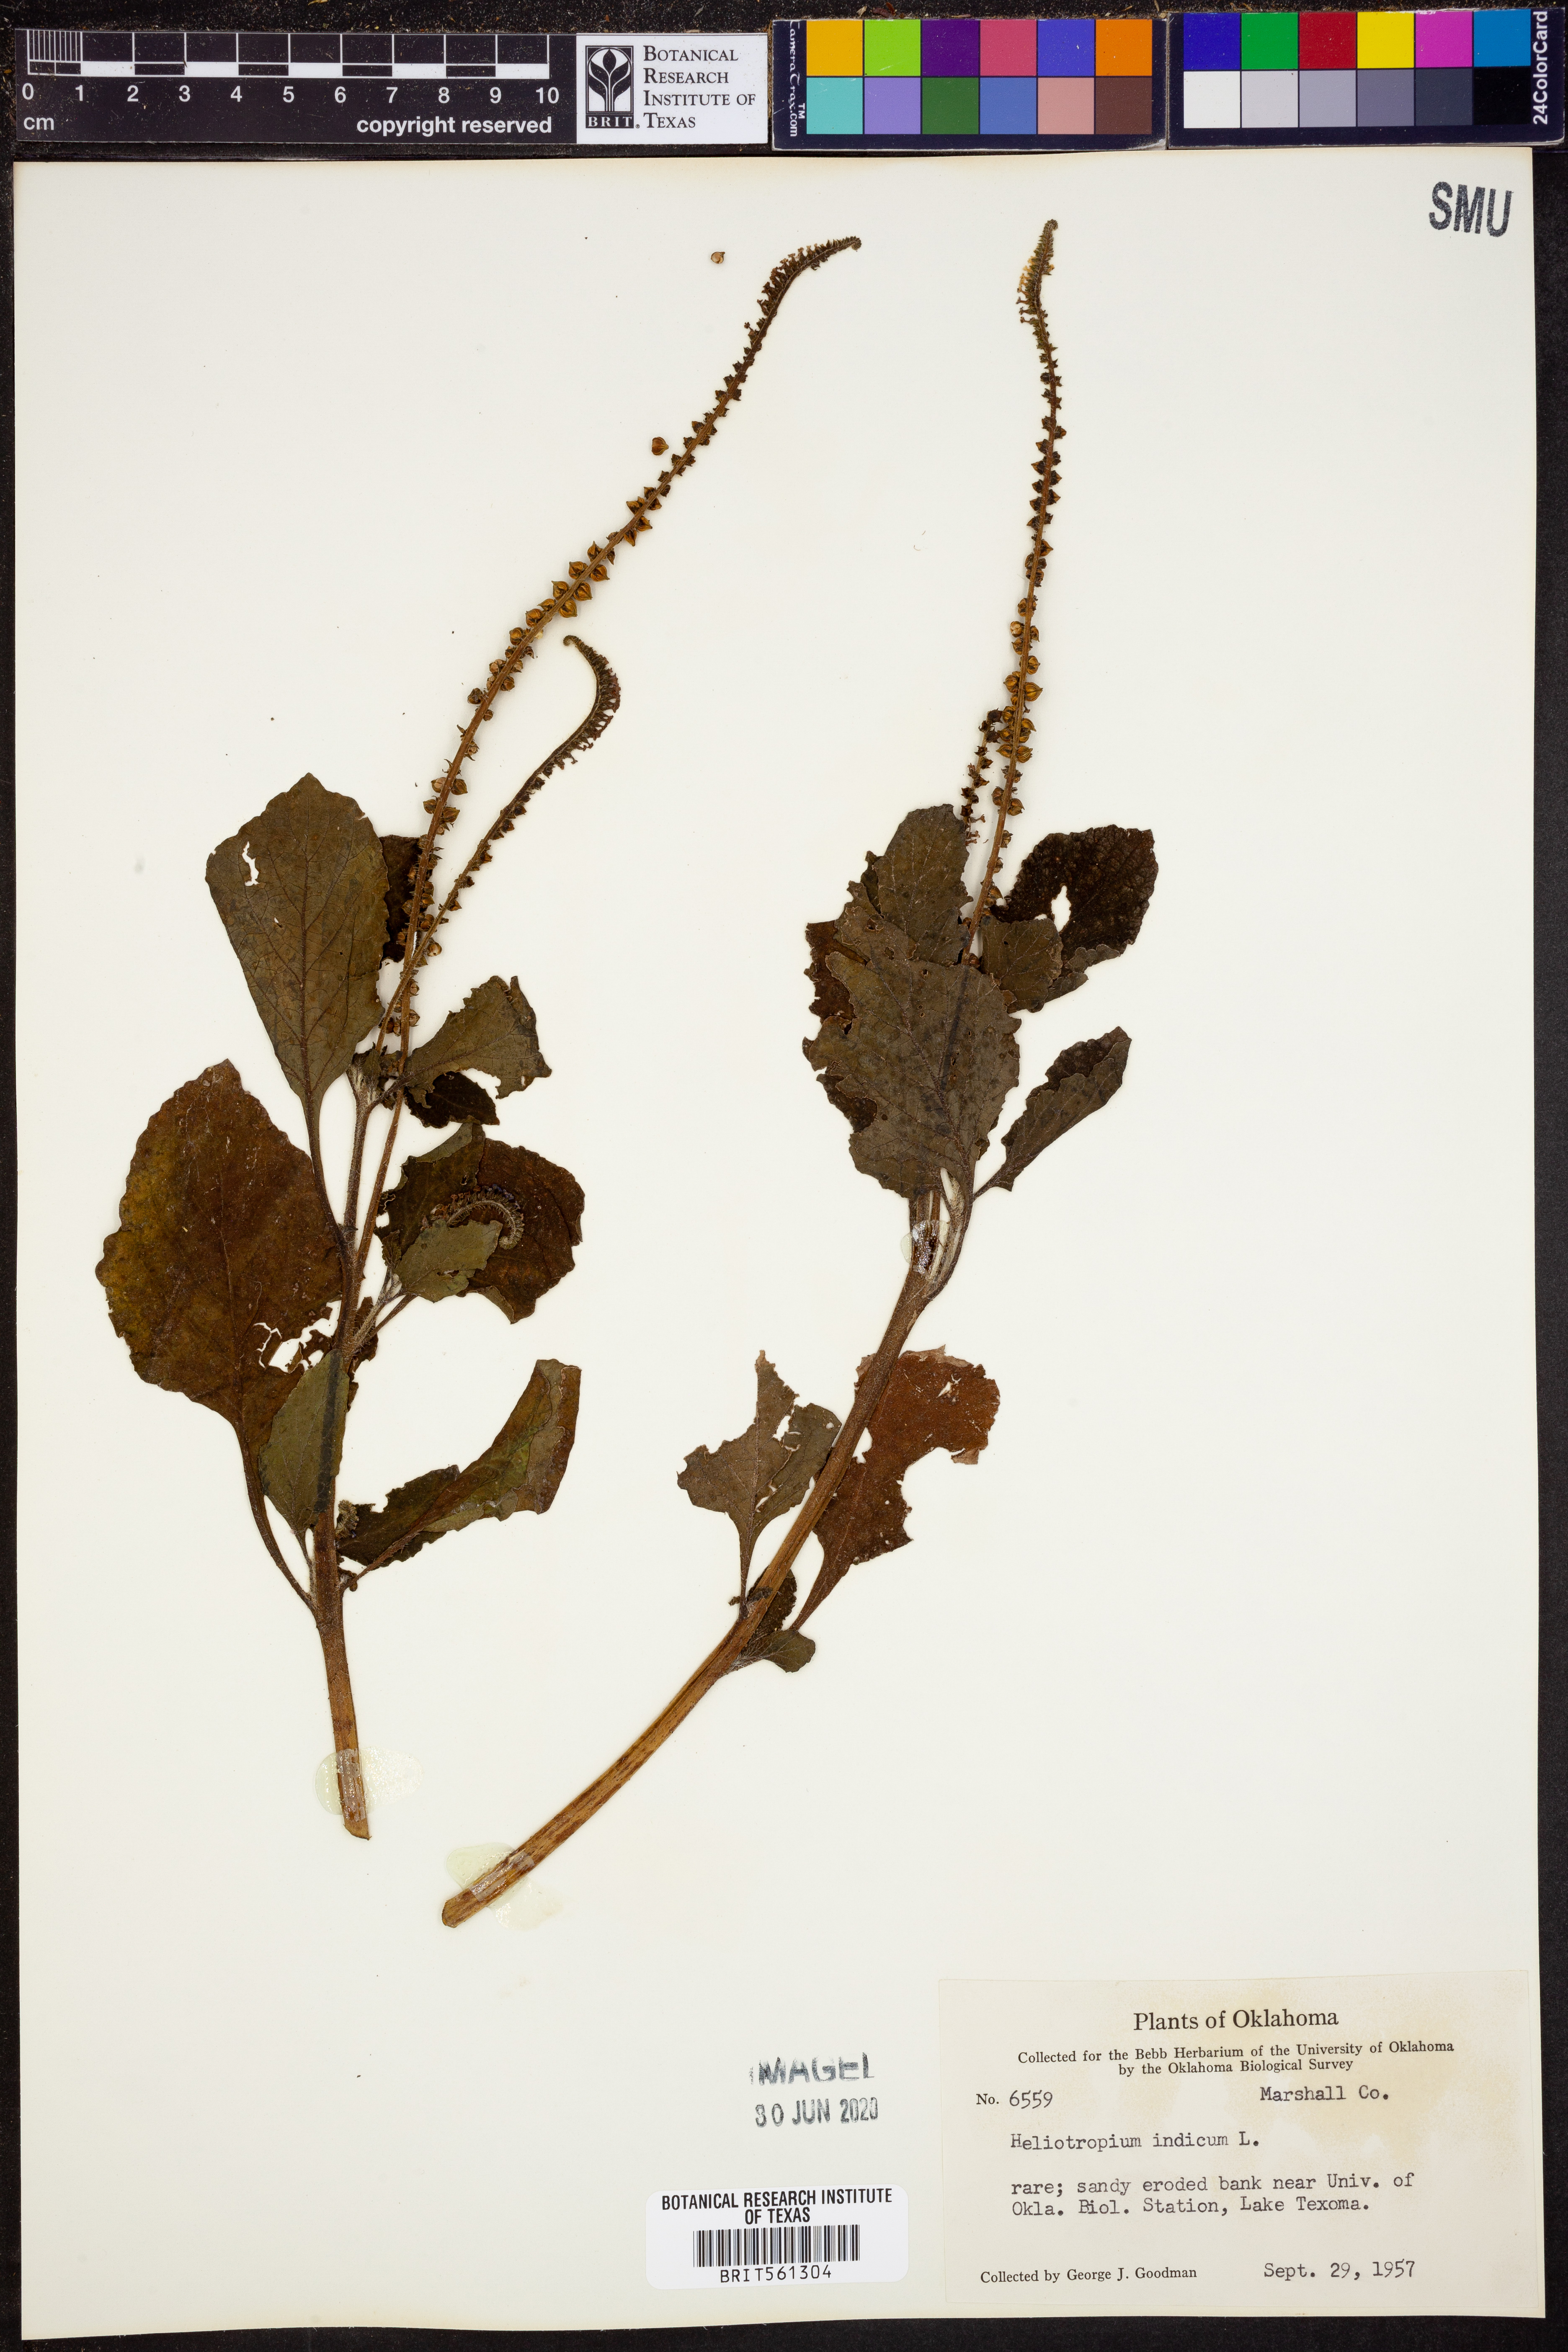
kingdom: Plantae
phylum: Tracheophyta
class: Magnoliopsida
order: Boraginales
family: Heliotropiaceae
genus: Heliotropium
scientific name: Heliotropium indicum
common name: Indian heliotrope
